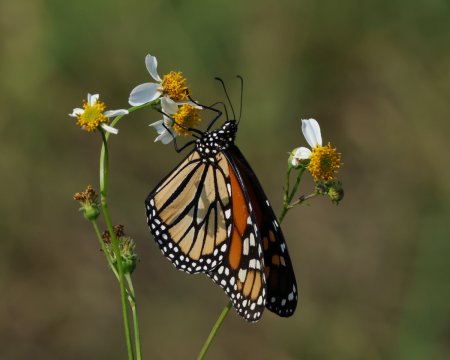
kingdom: Animalia
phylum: Arthropoda
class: Insecta
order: Lepidoptera
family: Nymphalidae
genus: Danaus
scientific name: Danaus plexippus
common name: Monarch
